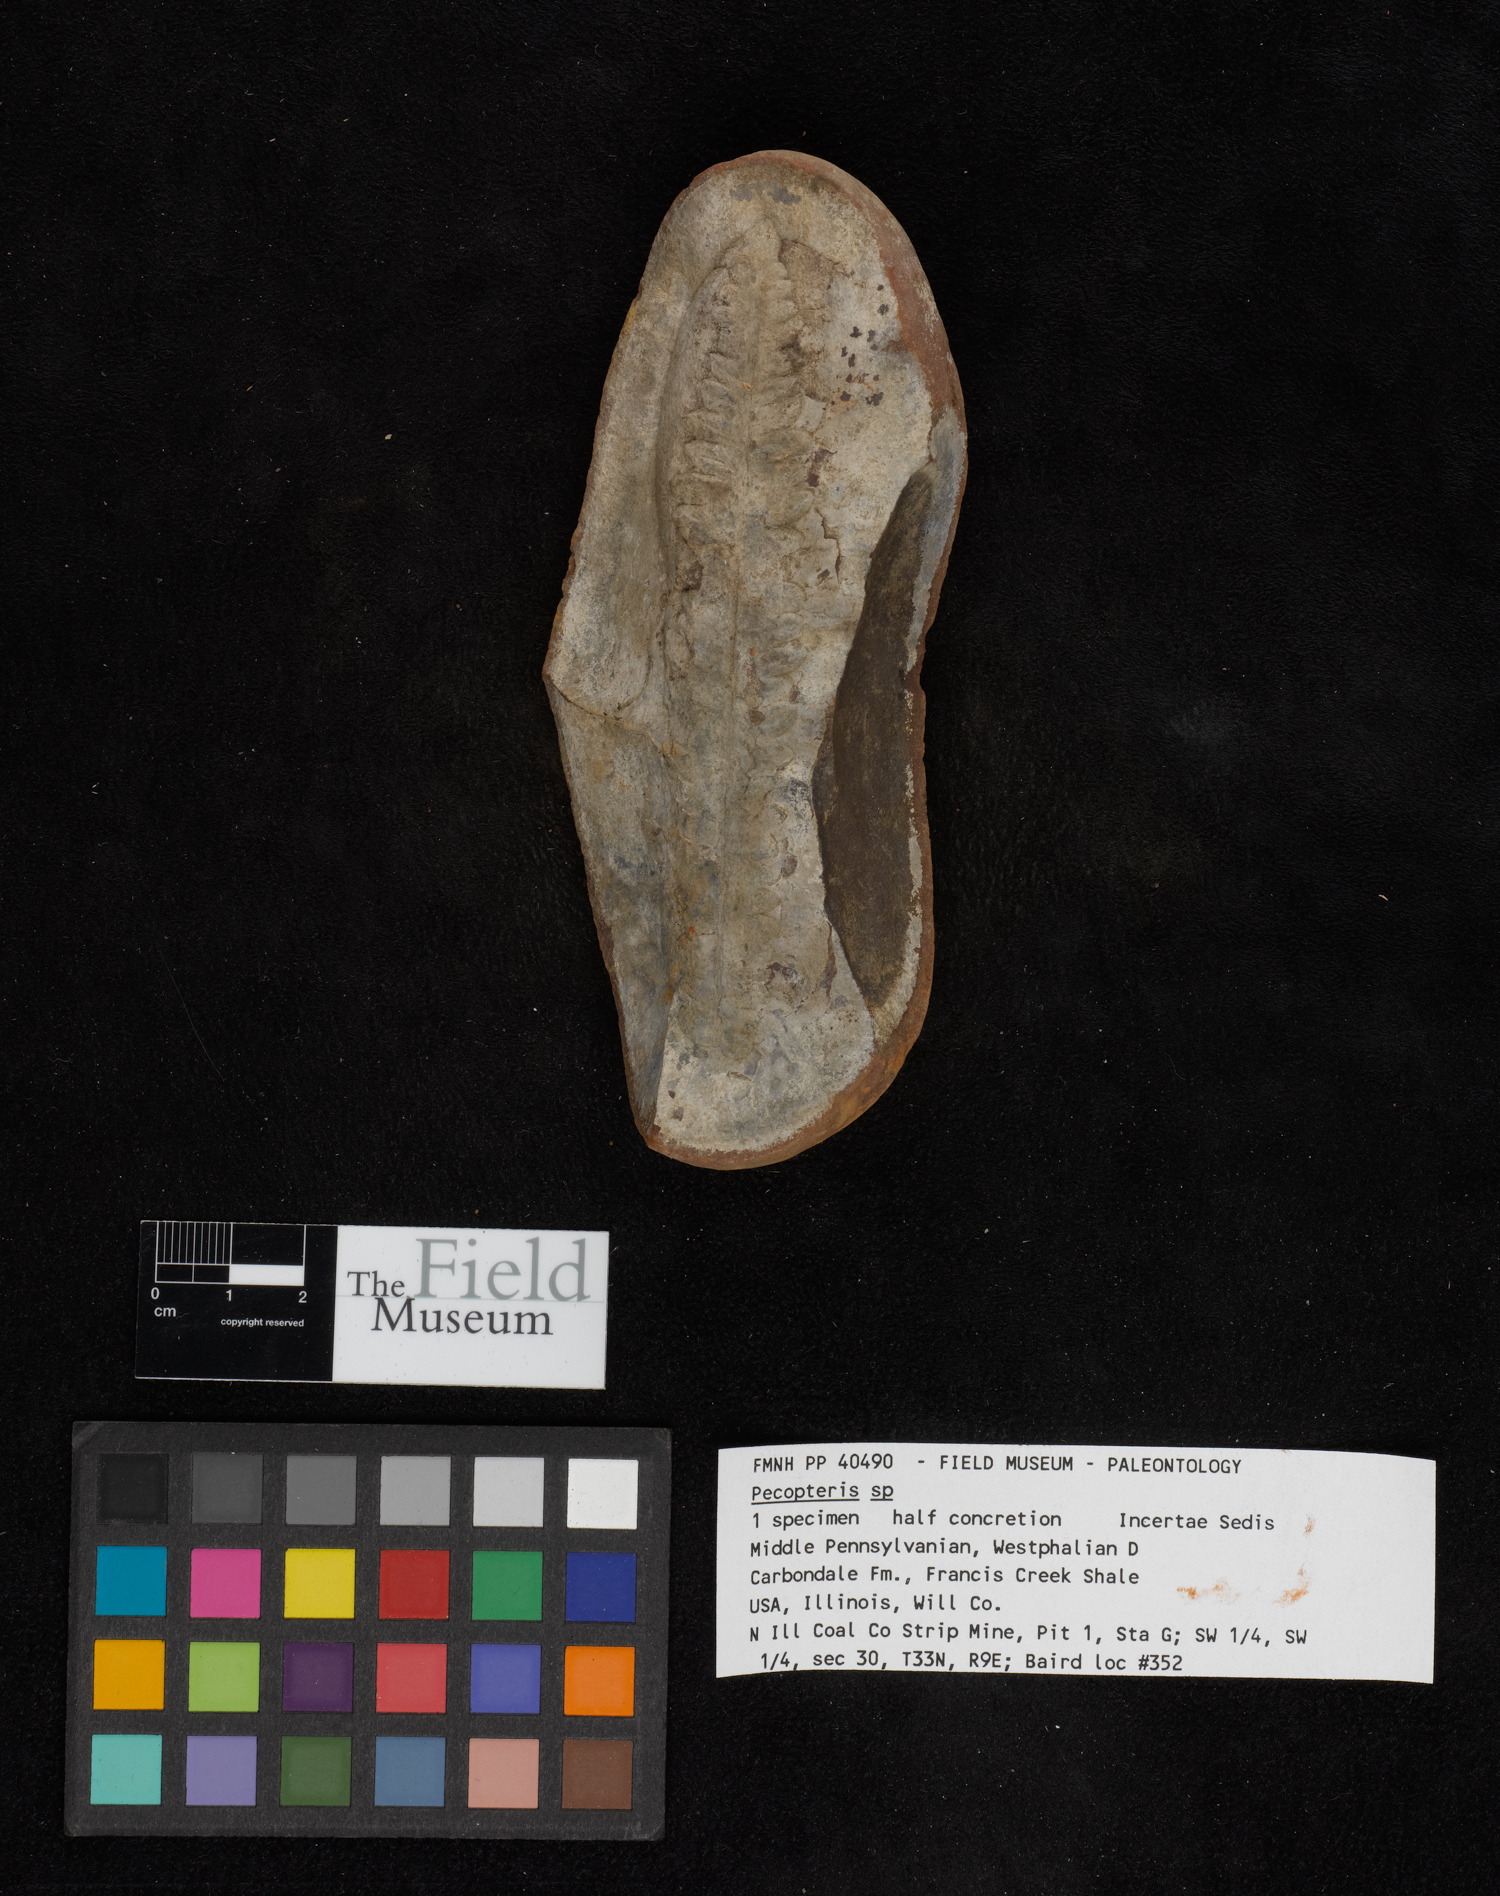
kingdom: Plantae
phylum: Tracheophyta
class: Polypodiopsida
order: Marattiales
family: Asterothecaceae
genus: Pecopteris
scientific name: Pecopteris
